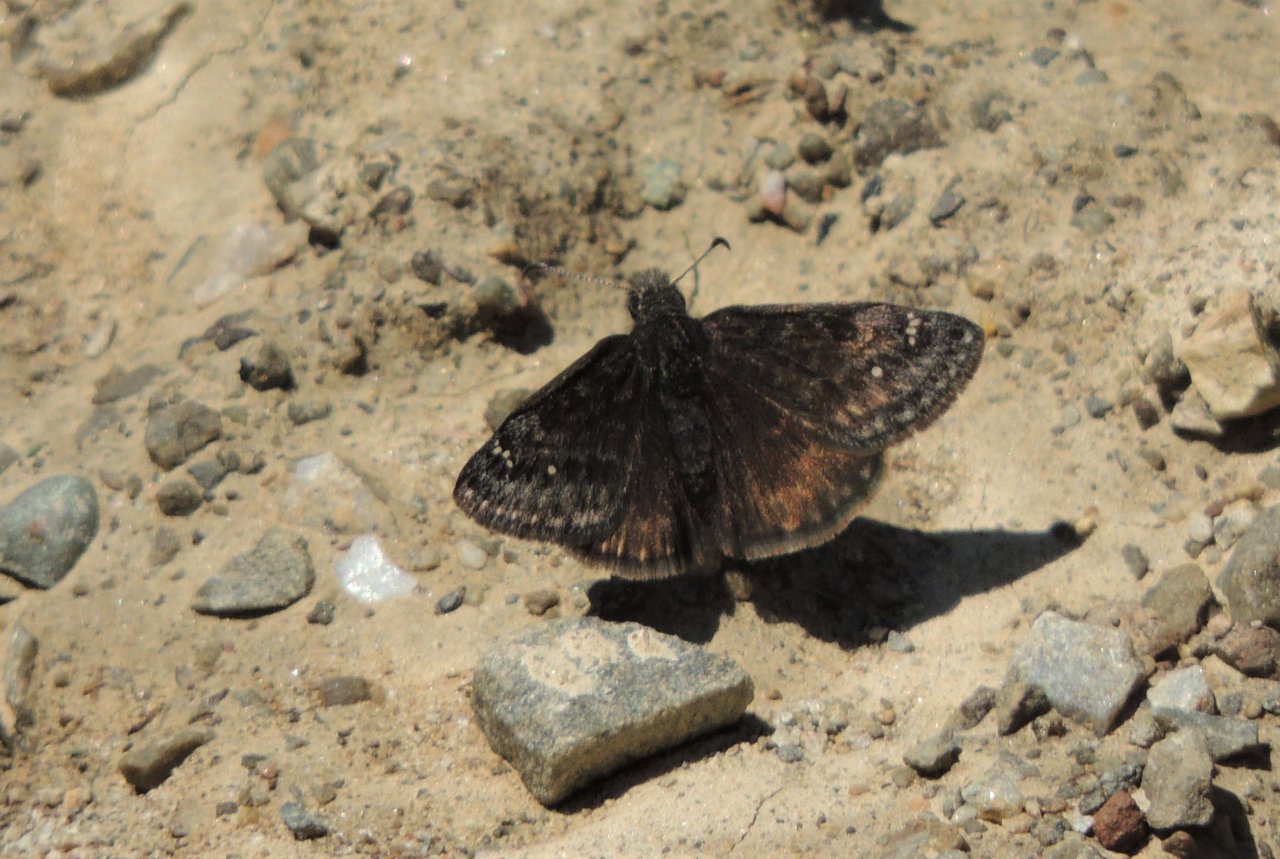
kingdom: Animalia
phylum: Arthropoda
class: Insecta
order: Lepidoptera
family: Hesperiidae
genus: Gesta
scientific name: Gesta
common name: Persius Duskywing
